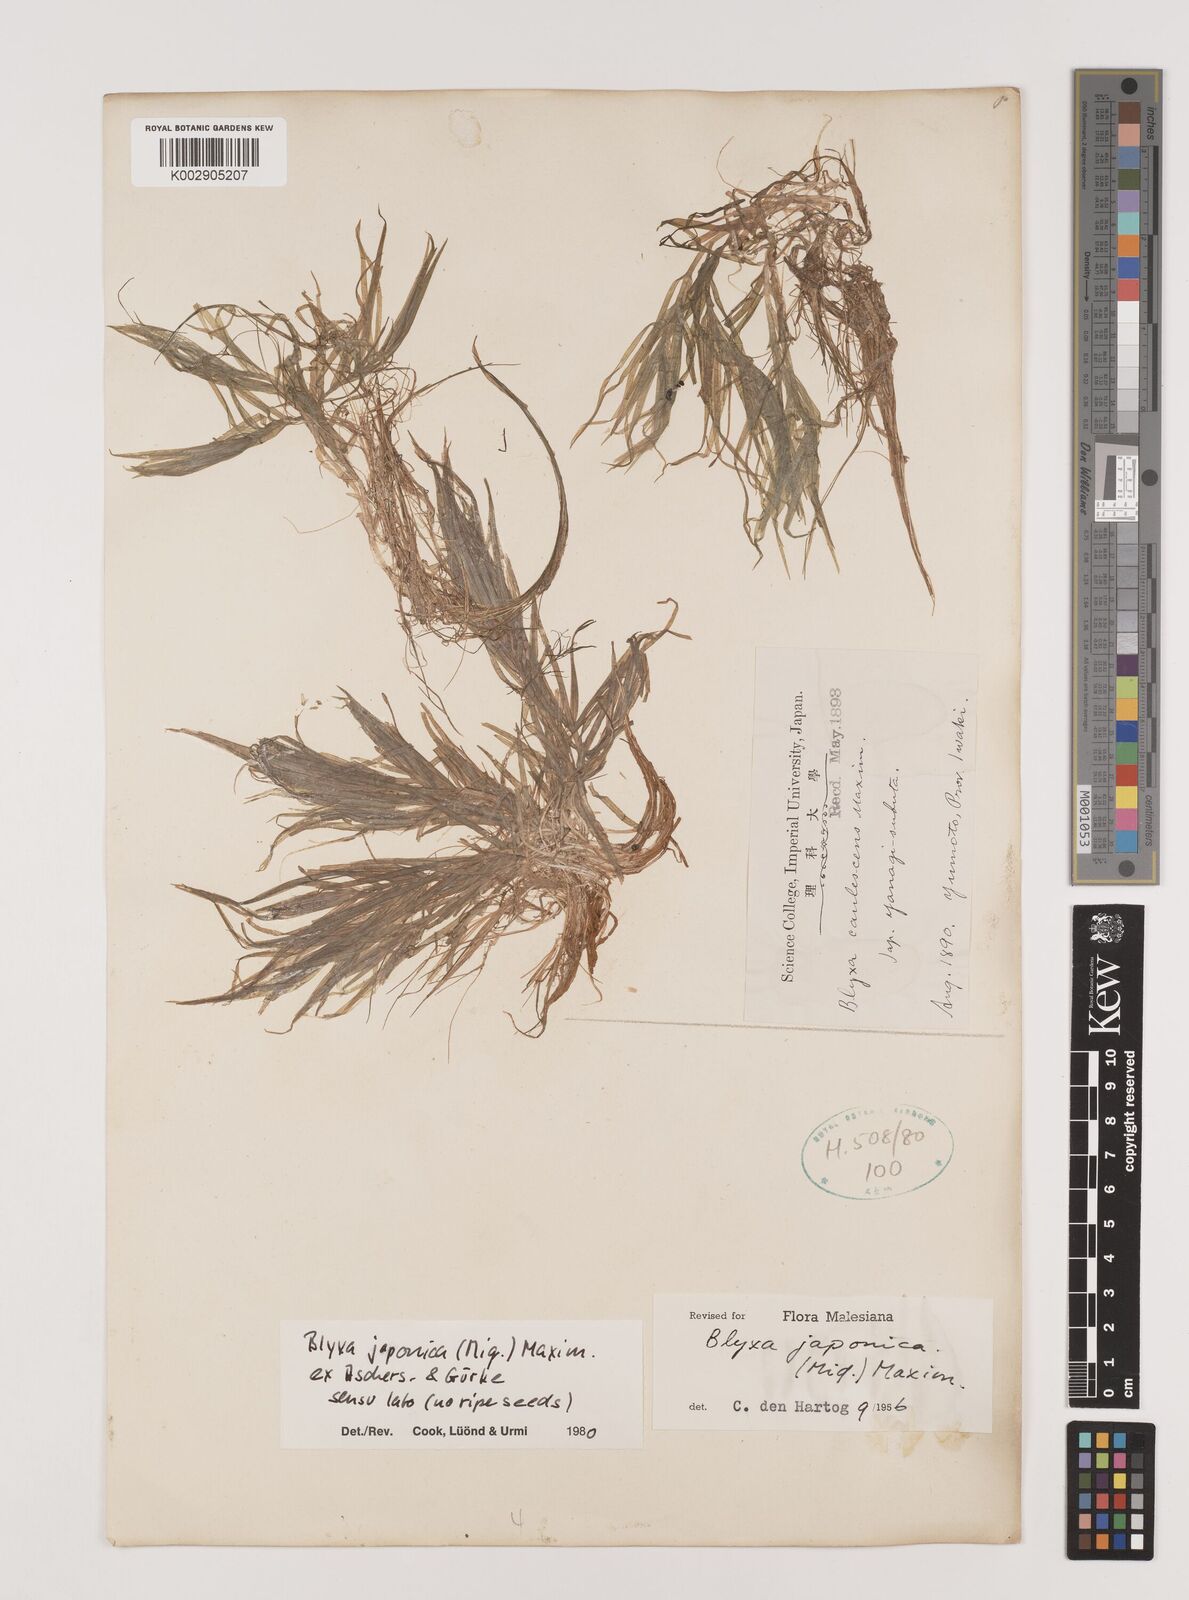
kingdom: Plantae
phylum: Tracheophyta
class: Liliopsida
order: Alismatales
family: Hydrocharitaceae
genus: Blyxa
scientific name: Blyxa japonica
